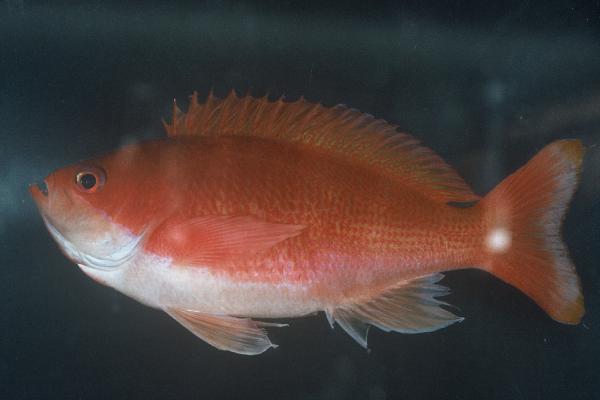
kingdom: Animalia
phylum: Chordata
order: Perciformes
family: Serranidae
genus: Pseudanthias
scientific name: Pseudanthias connelli
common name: Harlequin goldie
